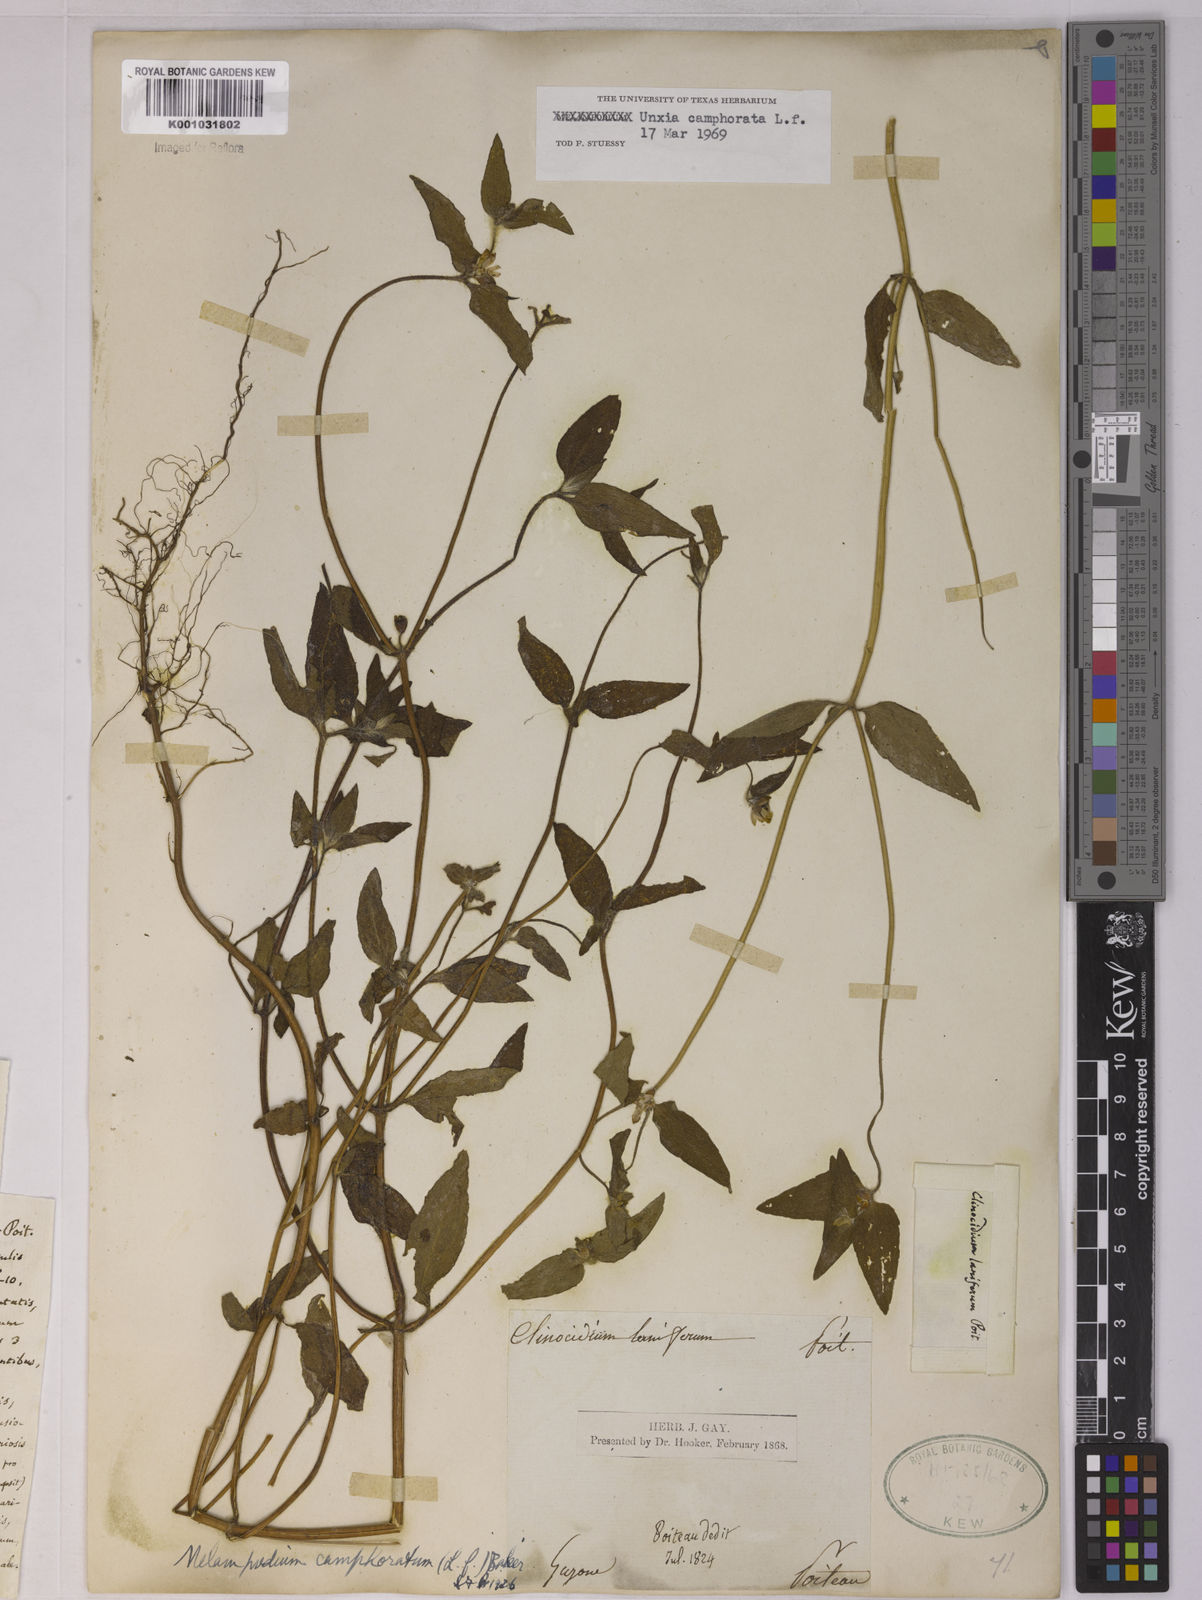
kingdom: Plantae
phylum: Tracheophyta
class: Magnoliopsida
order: Asterales
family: Asteraceae
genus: Unxia
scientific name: Unxia camphorata
